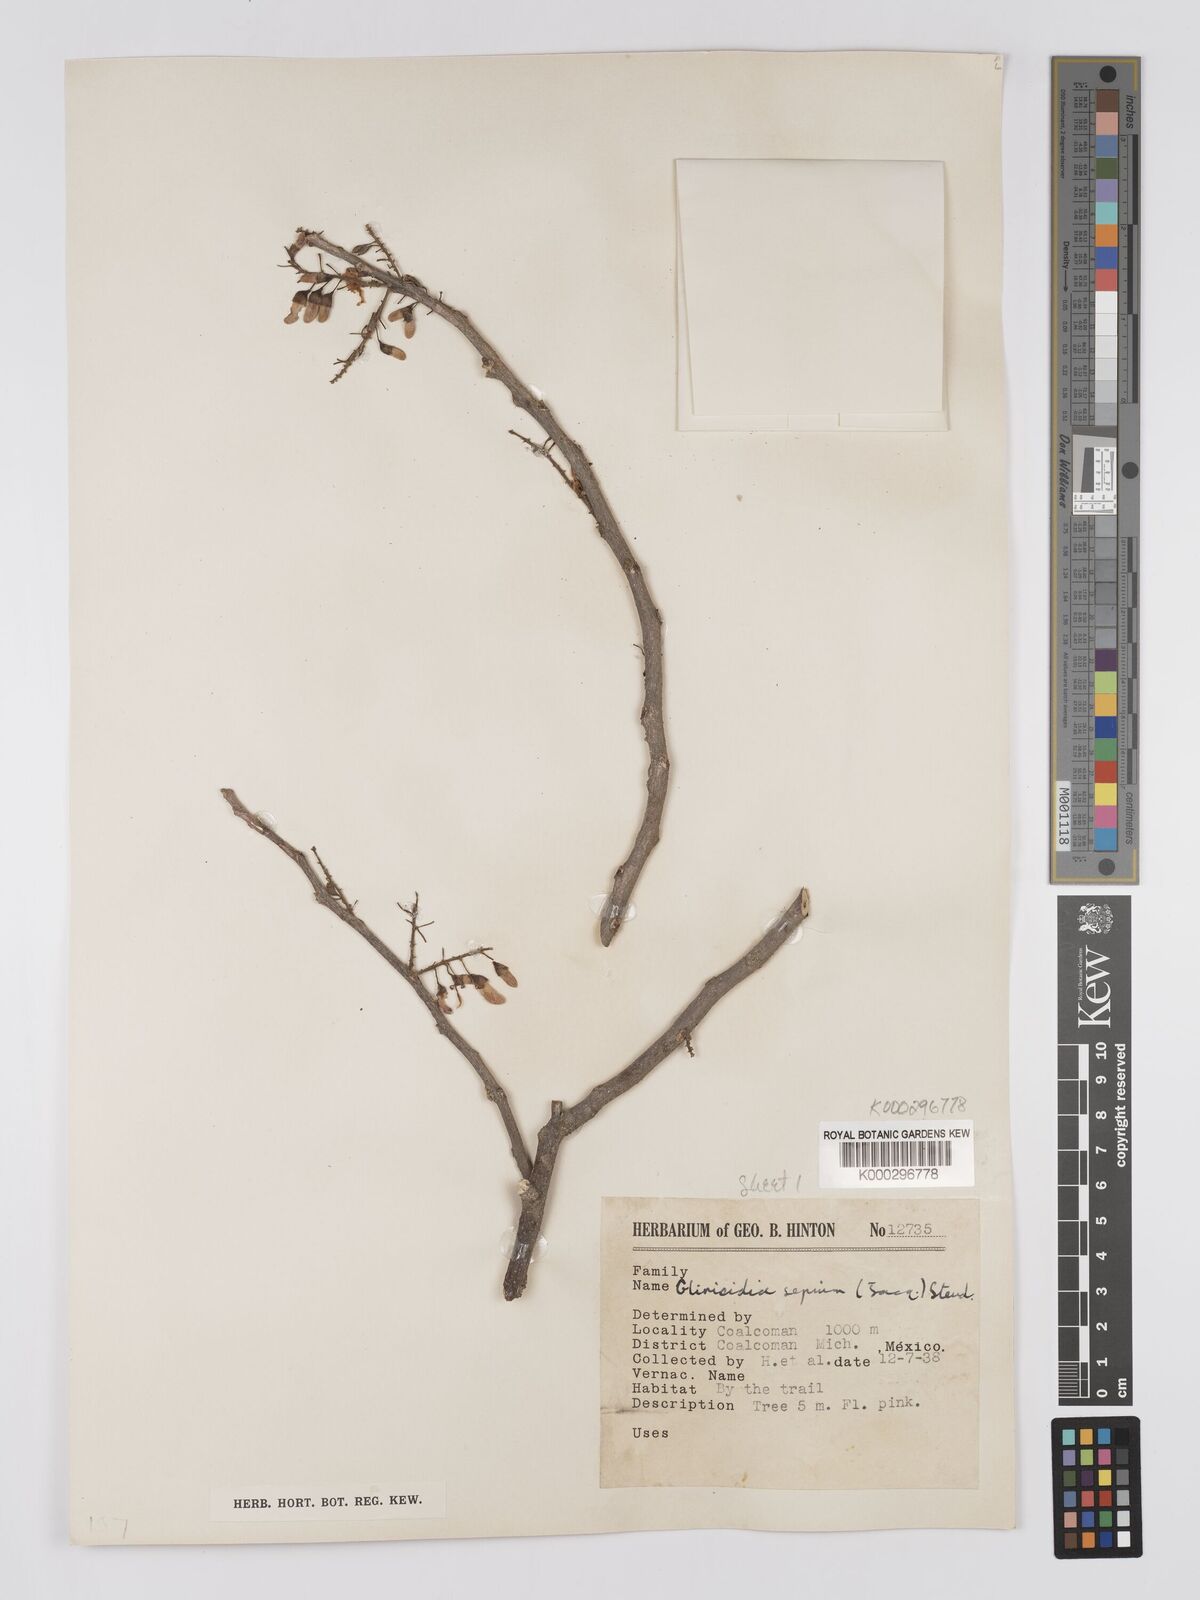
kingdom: Plantae
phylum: Tracheophyta
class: Magnoliopsida
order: Fabales
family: Fabaceae
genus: Gliricidia
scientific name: Gliricidia sepium
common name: Quickstick
